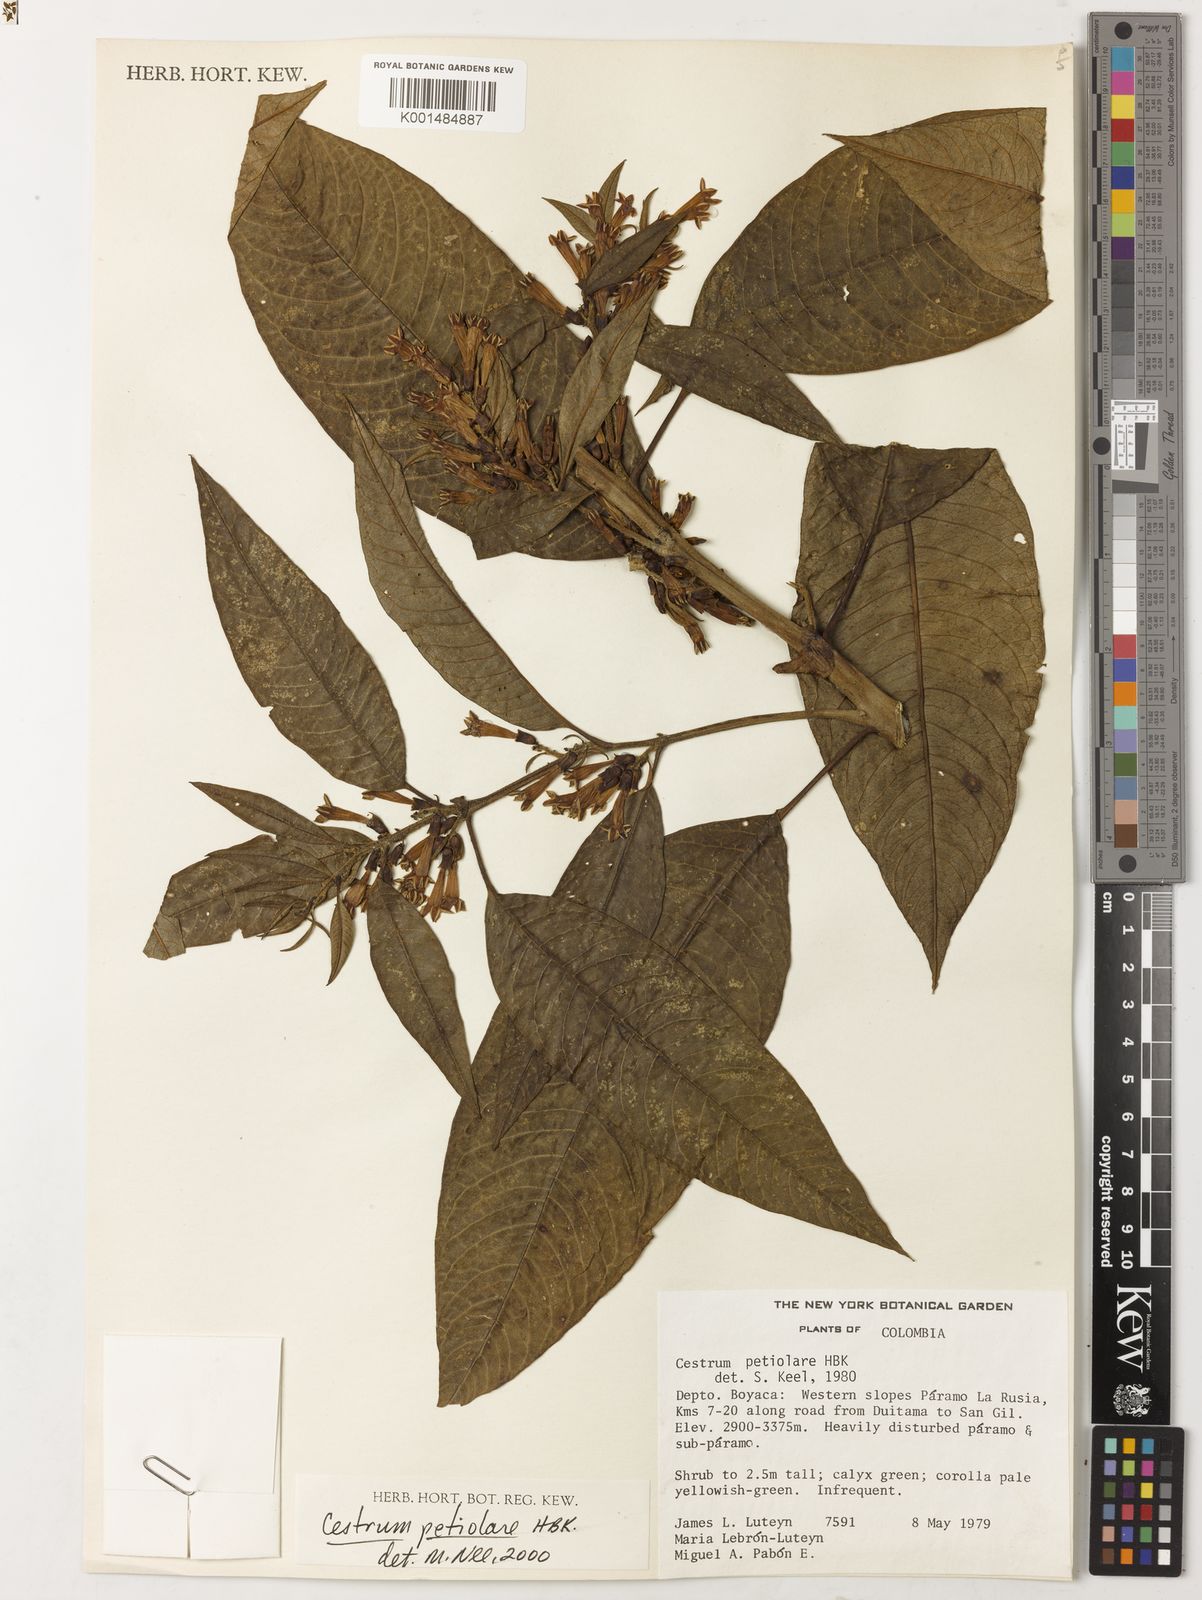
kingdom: Plantae
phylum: Tracheophyta
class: Magnoliopsida
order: Solanales
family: Solanaceae
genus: Cestrum
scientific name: Cestrum petiolare
